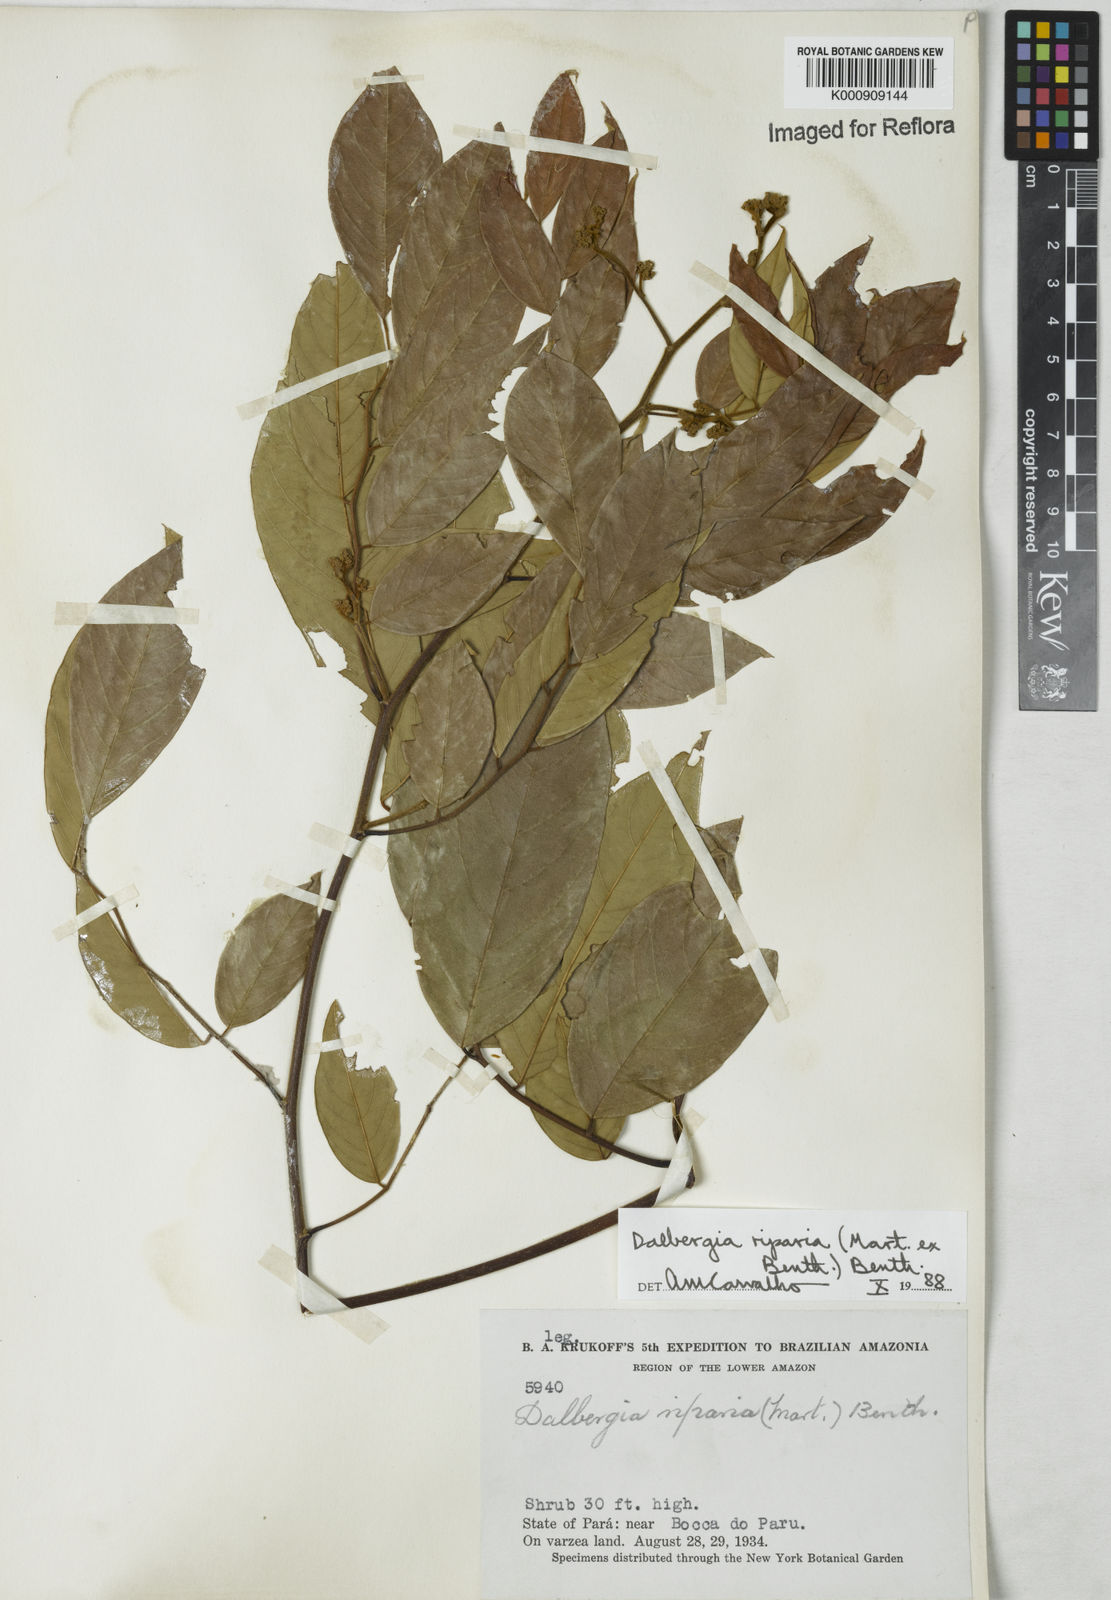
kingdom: Plantae
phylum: Tracheophyta
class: Magnoliopsida
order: Fabales
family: Fabaceae
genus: Dalbergia
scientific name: Dalbergia riparia
